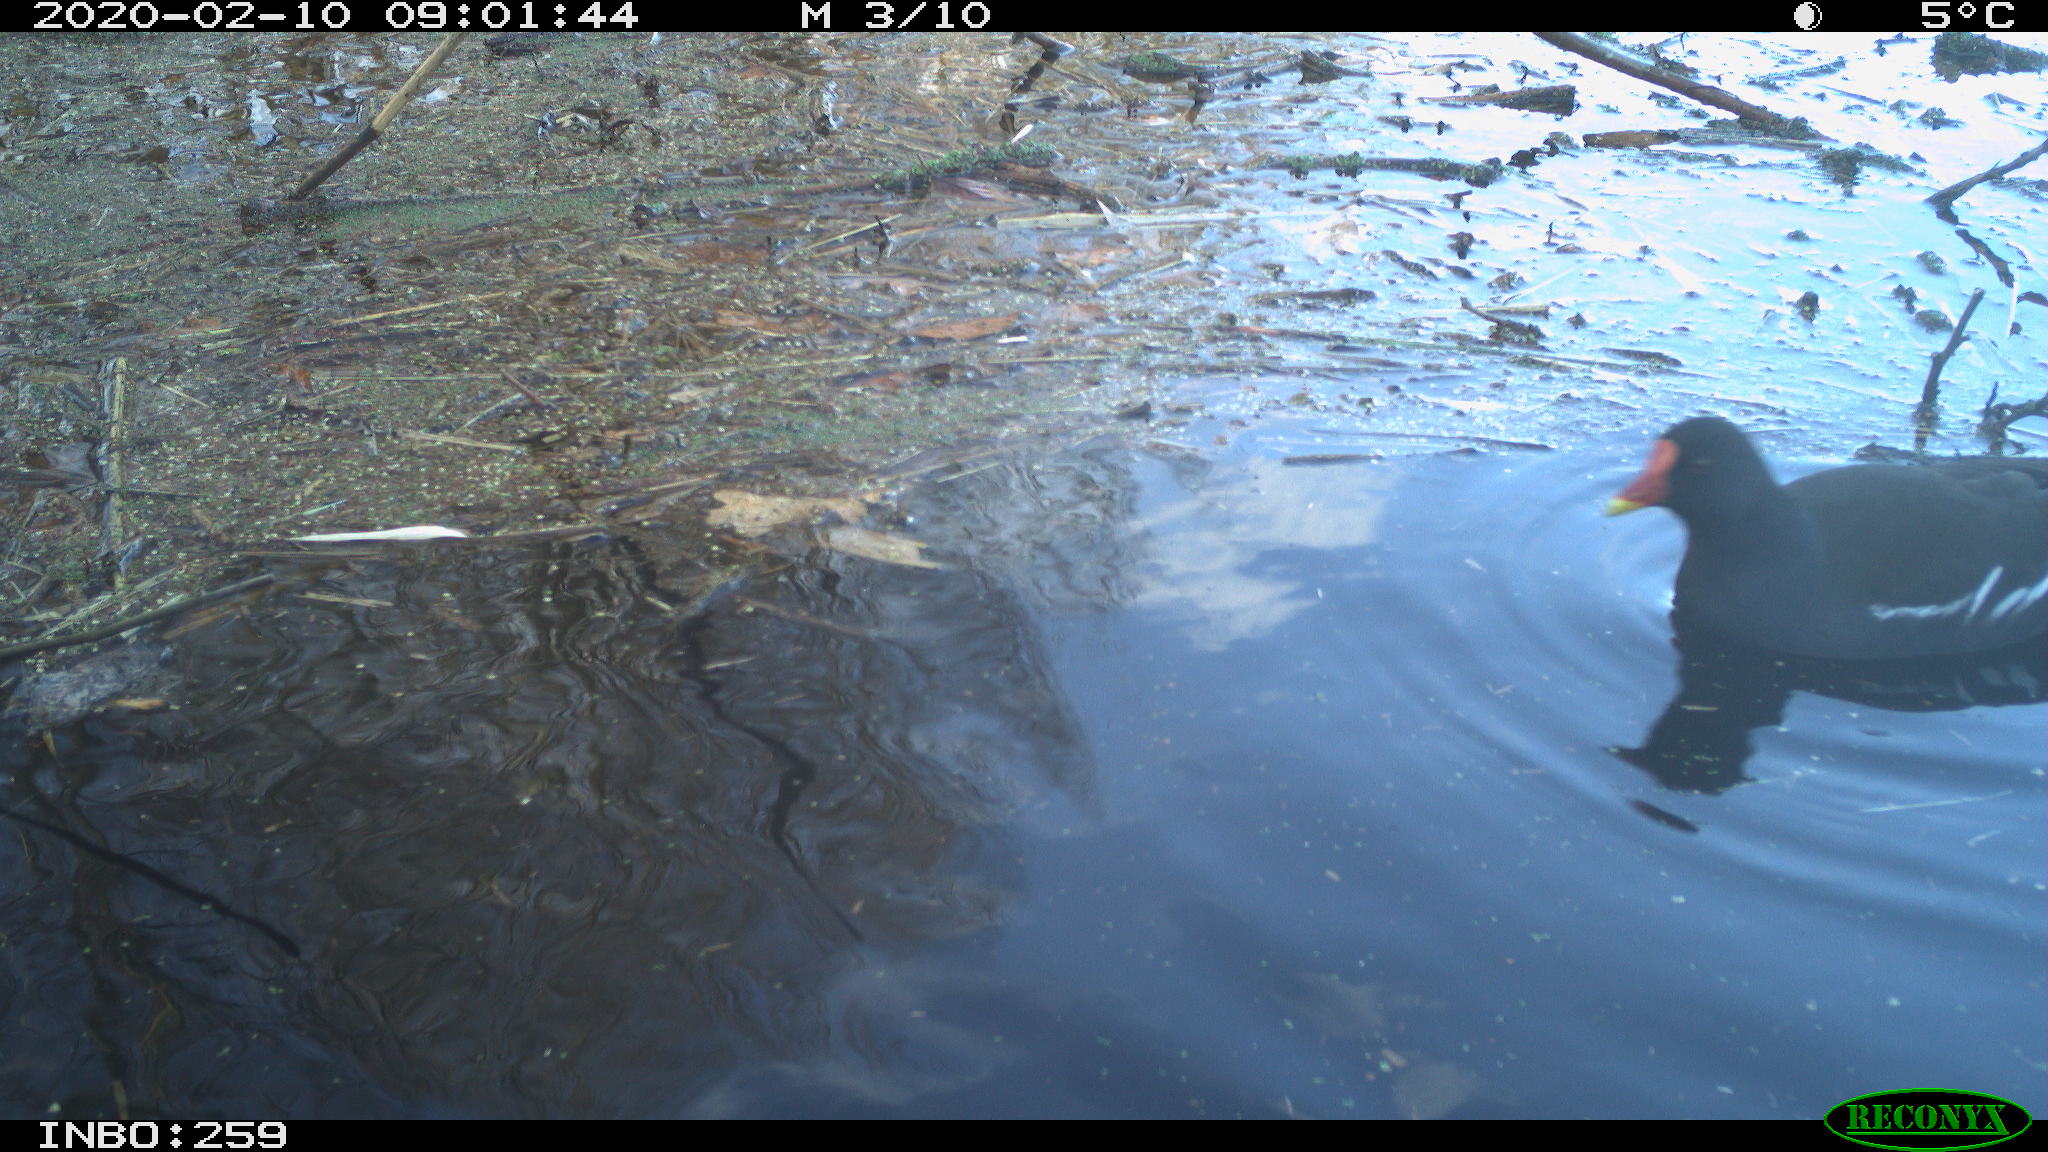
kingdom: Animalia
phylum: Chordata
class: Aves
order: Gruiformes
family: Rallidae
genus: Gallinula
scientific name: Gallinula chloropus
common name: Common moorhen
